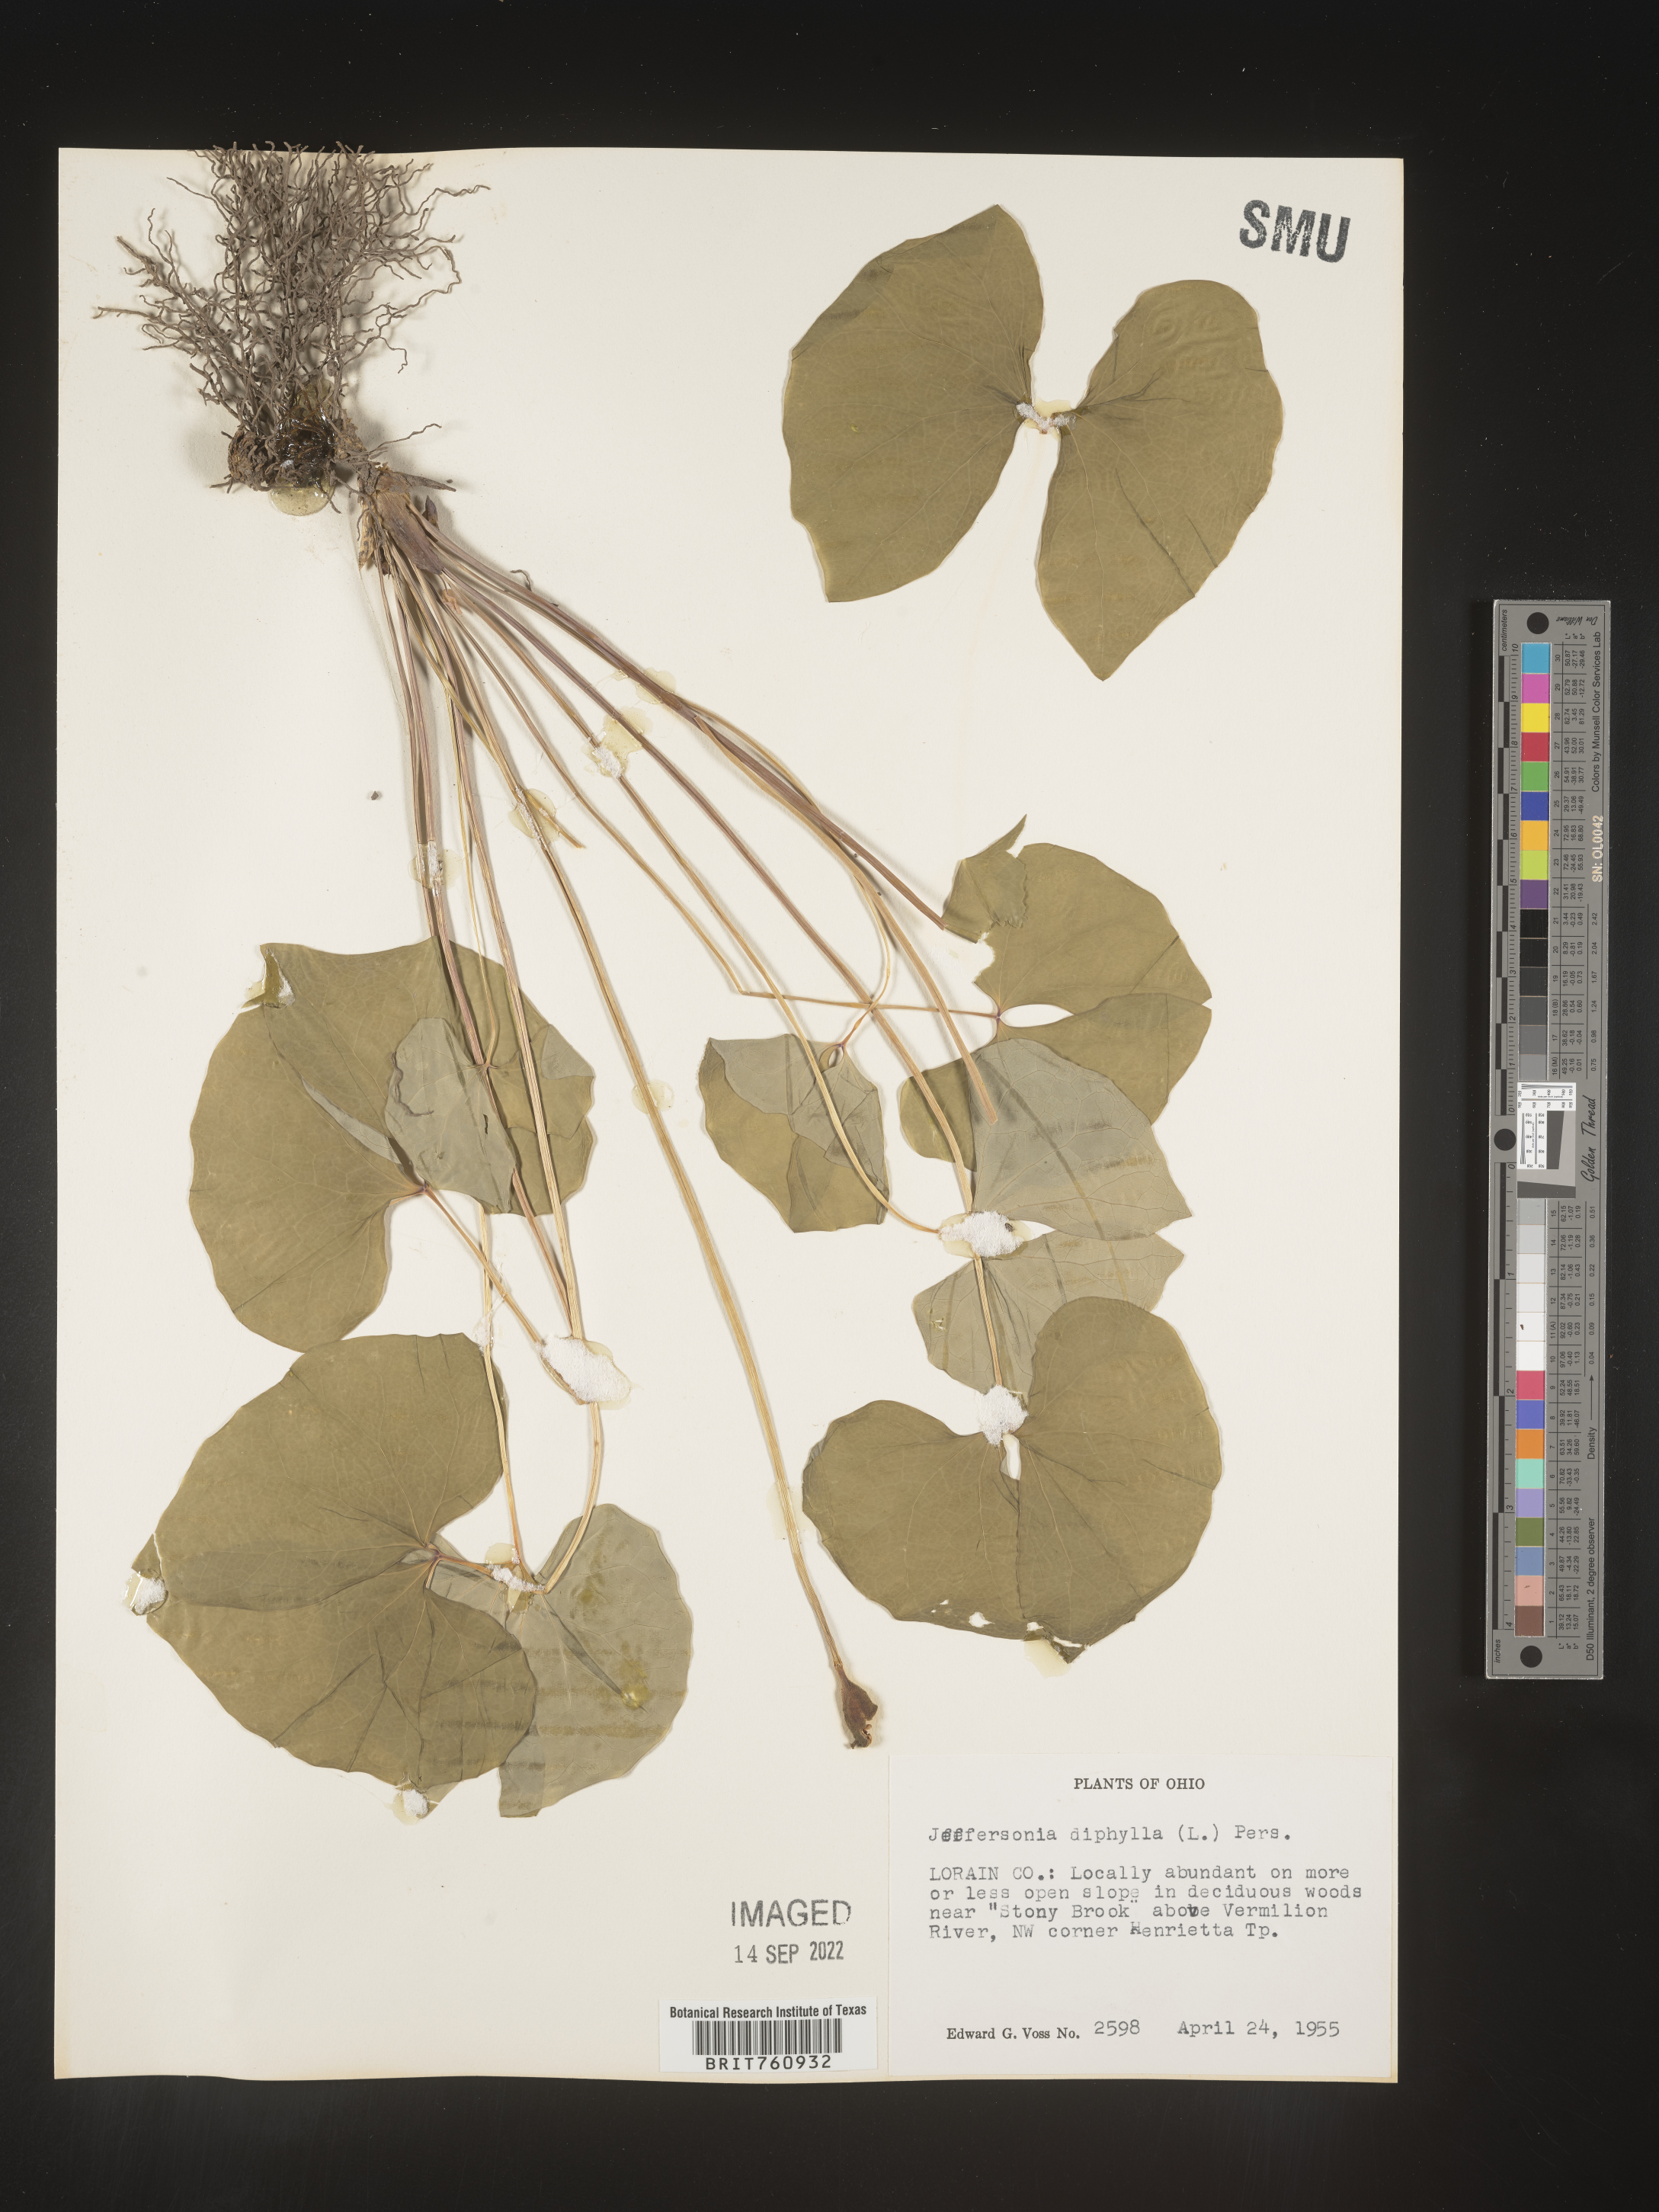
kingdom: Plantae
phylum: Tracheophyta
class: Magnoliopsida
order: Ranunculales
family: Berberidaceae
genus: Jeffersonia
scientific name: Jeffersonia
